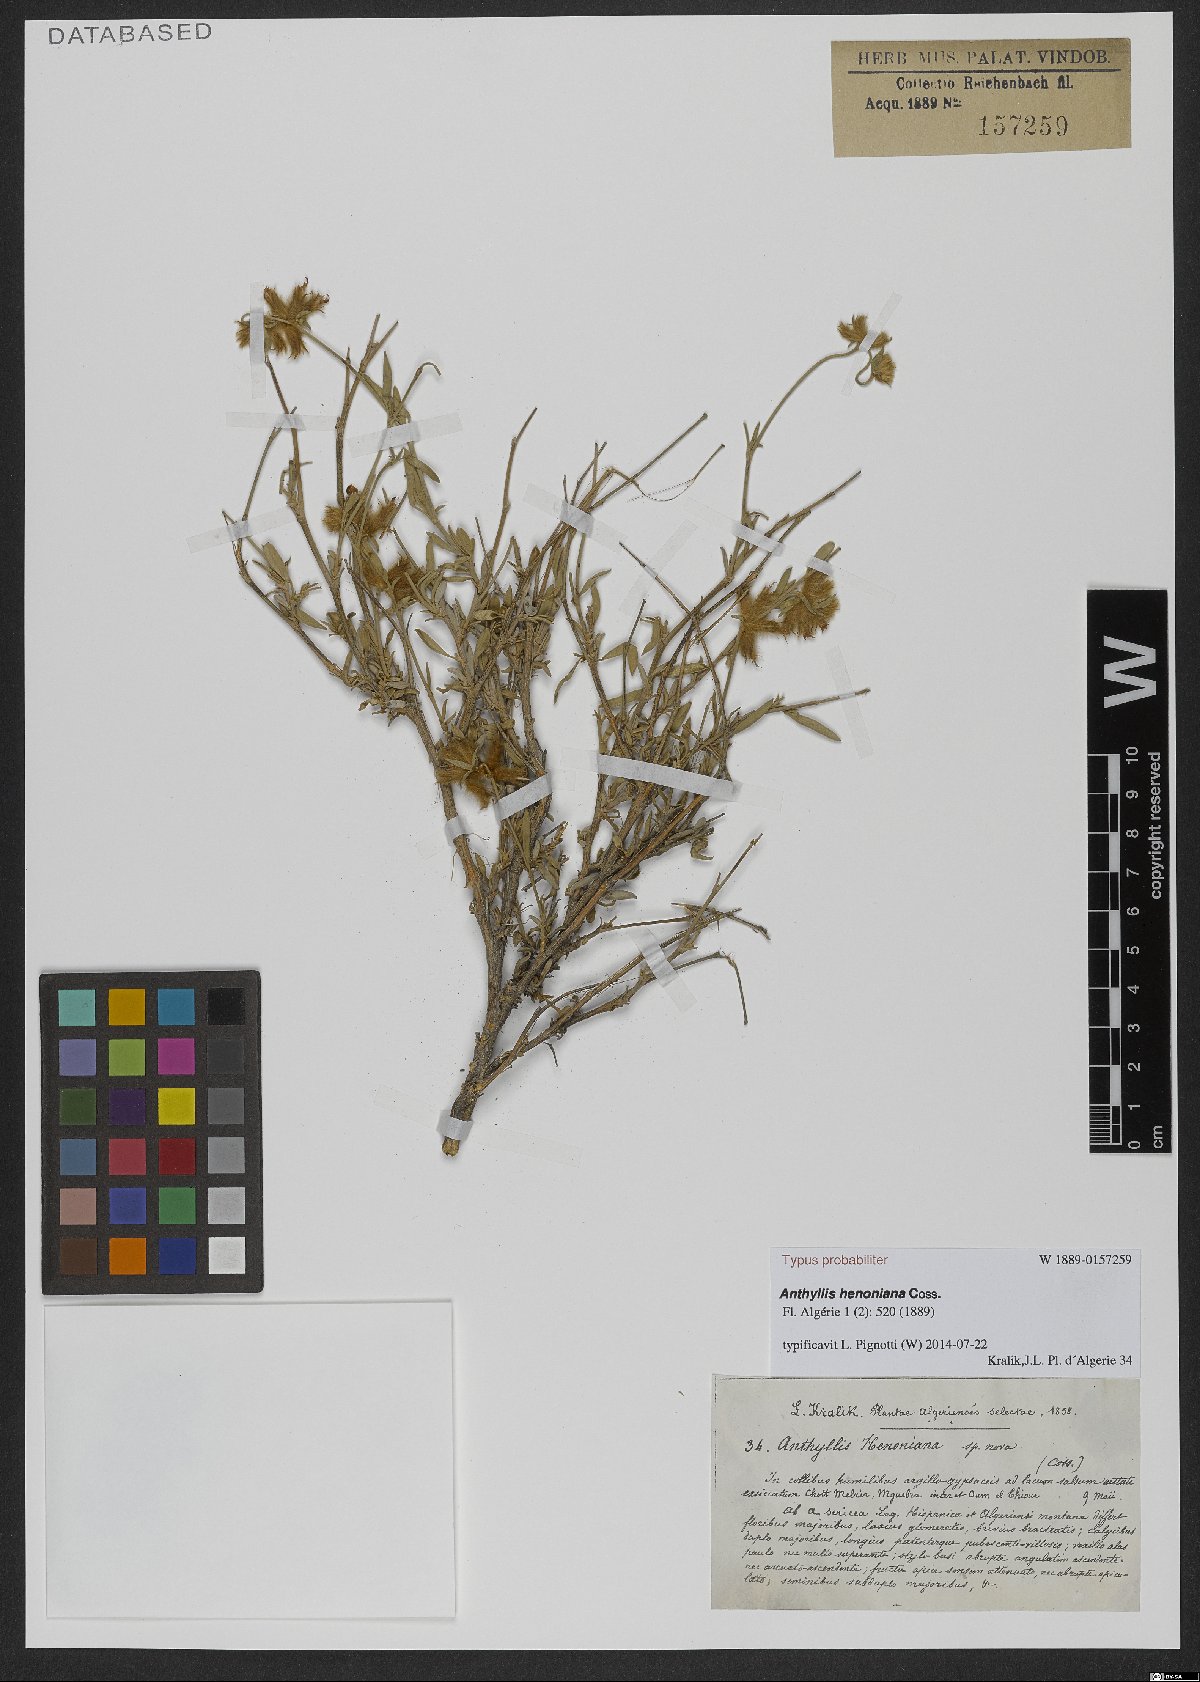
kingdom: Plantae
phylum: Tracheophyta
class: Magnoliopsida
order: Fabales
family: Fabaceae
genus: Anthyllis
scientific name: Anthyllis henoniana
